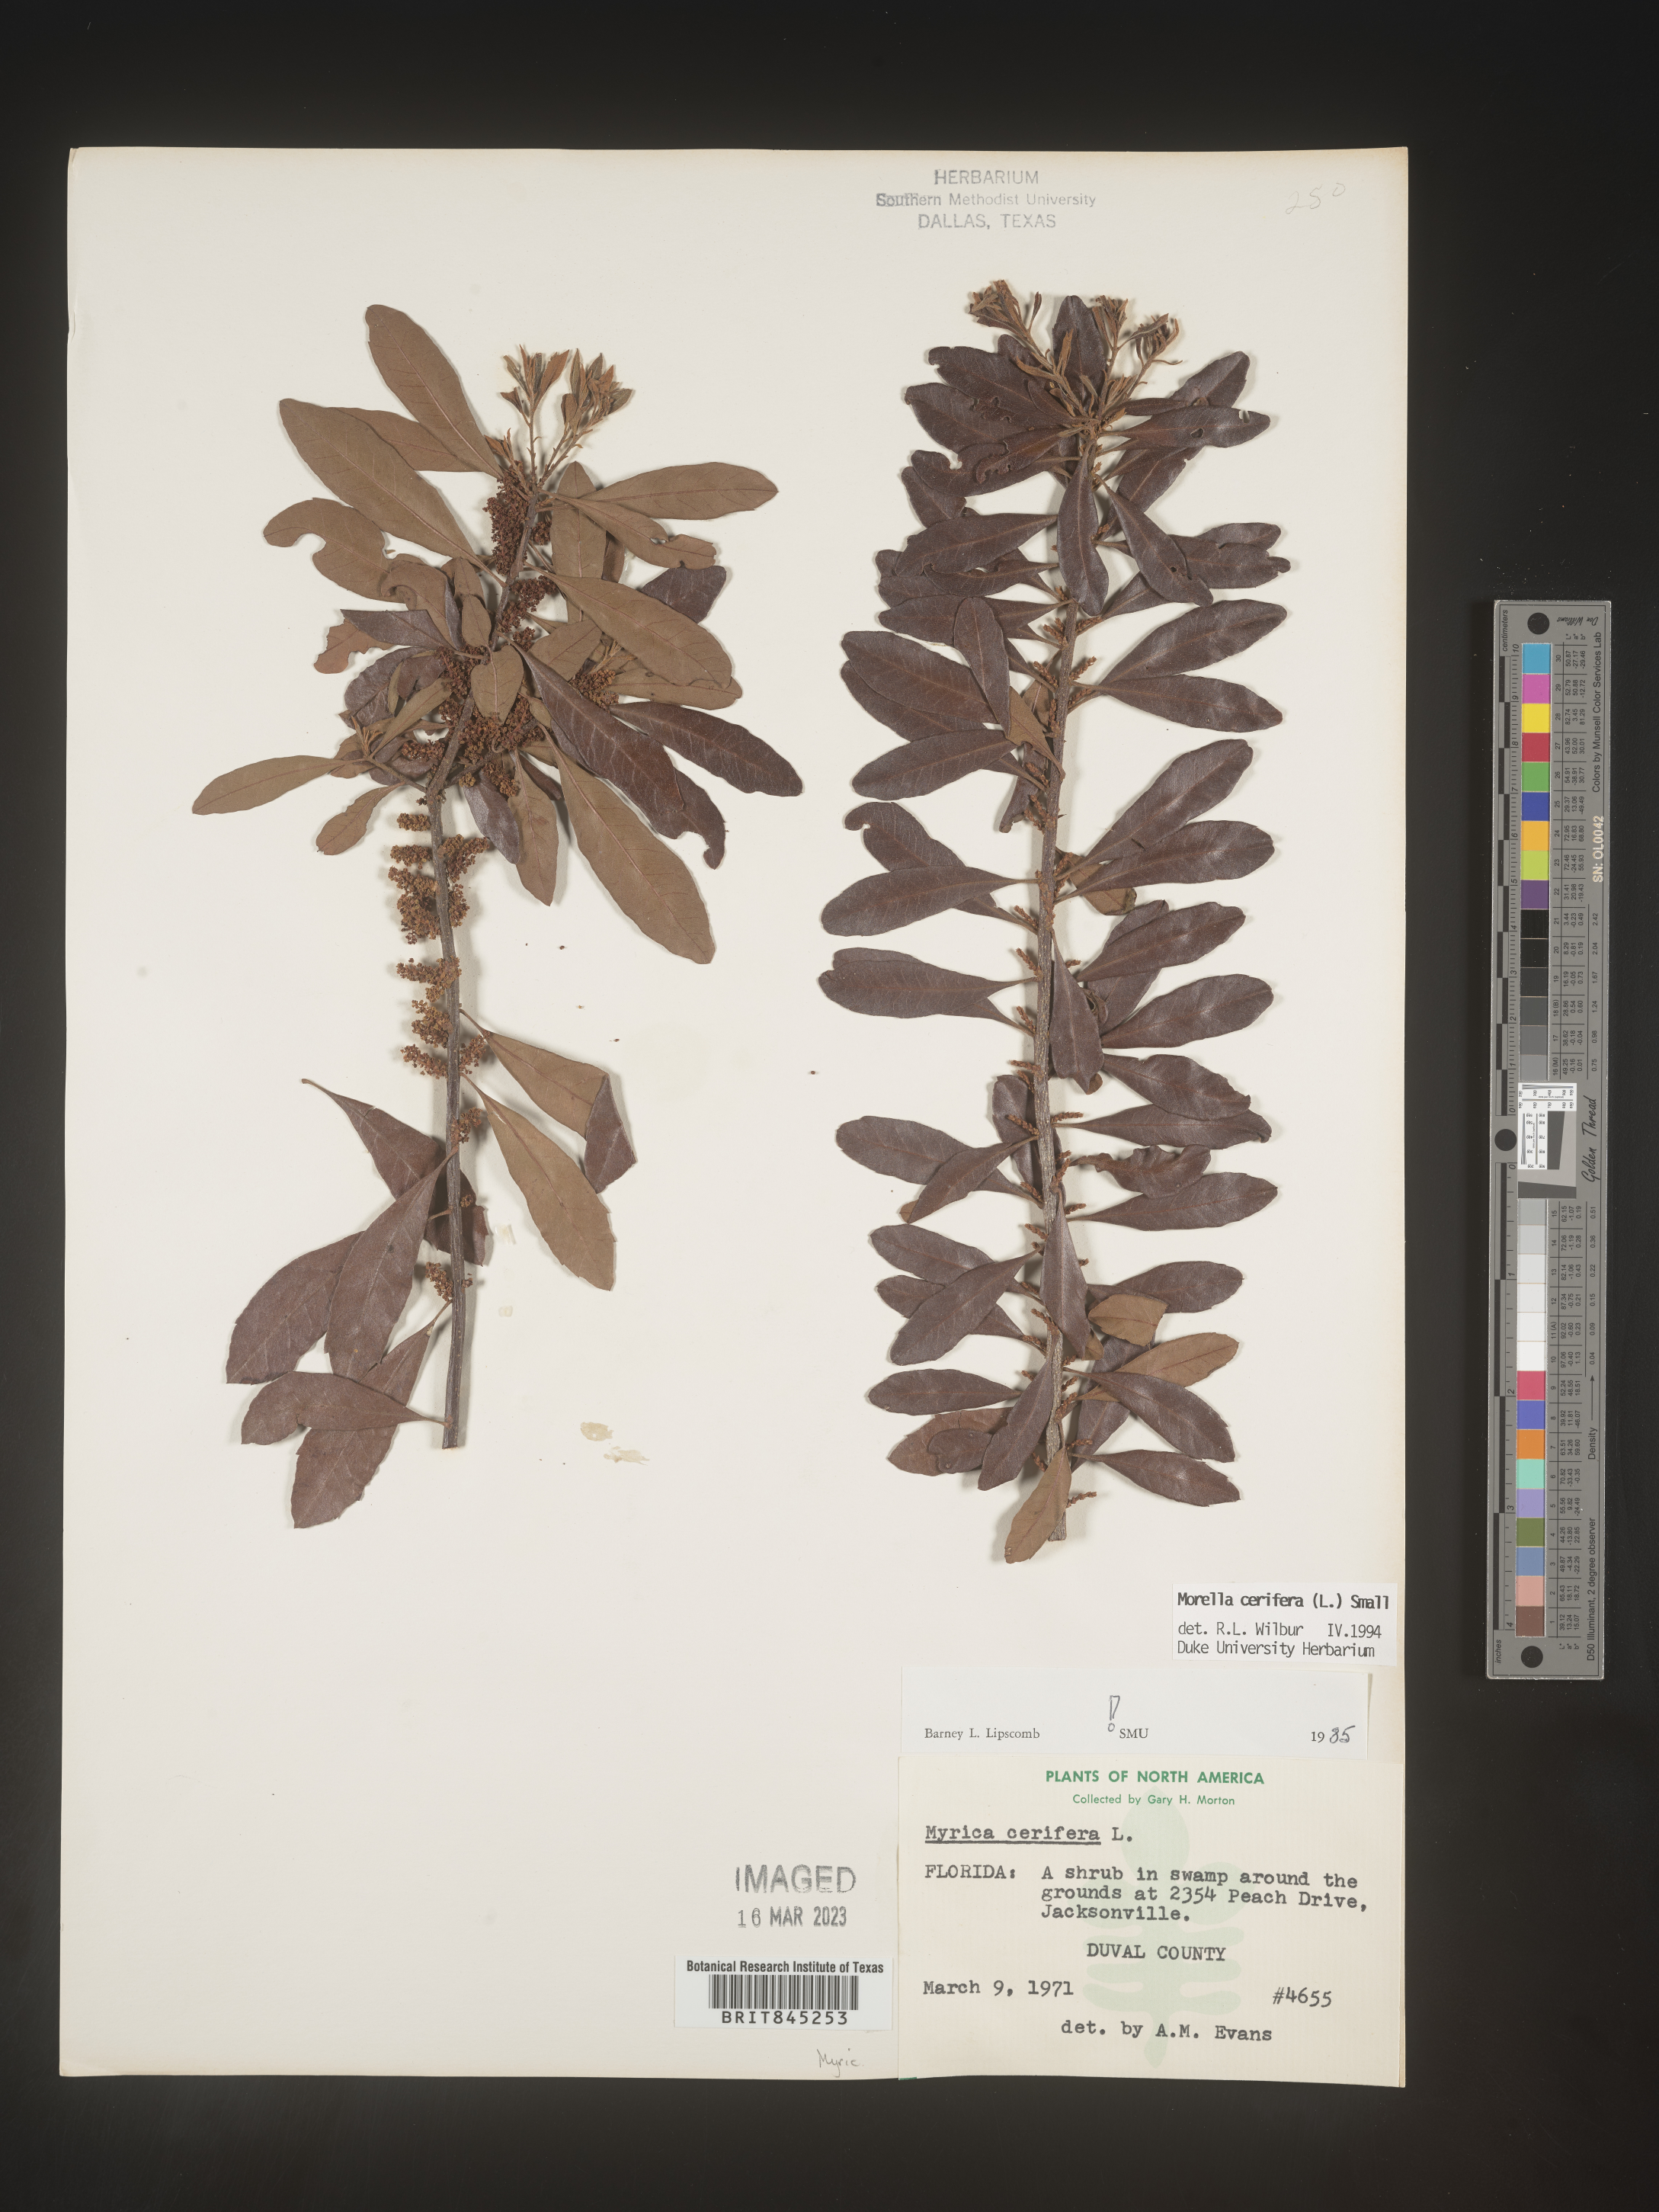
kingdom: Plantae
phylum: Tracheophyta
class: Magnoliopsida
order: Fagales
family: Myricaceae
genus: Morella
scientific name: Morella cerifera
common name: Wax myrtle
